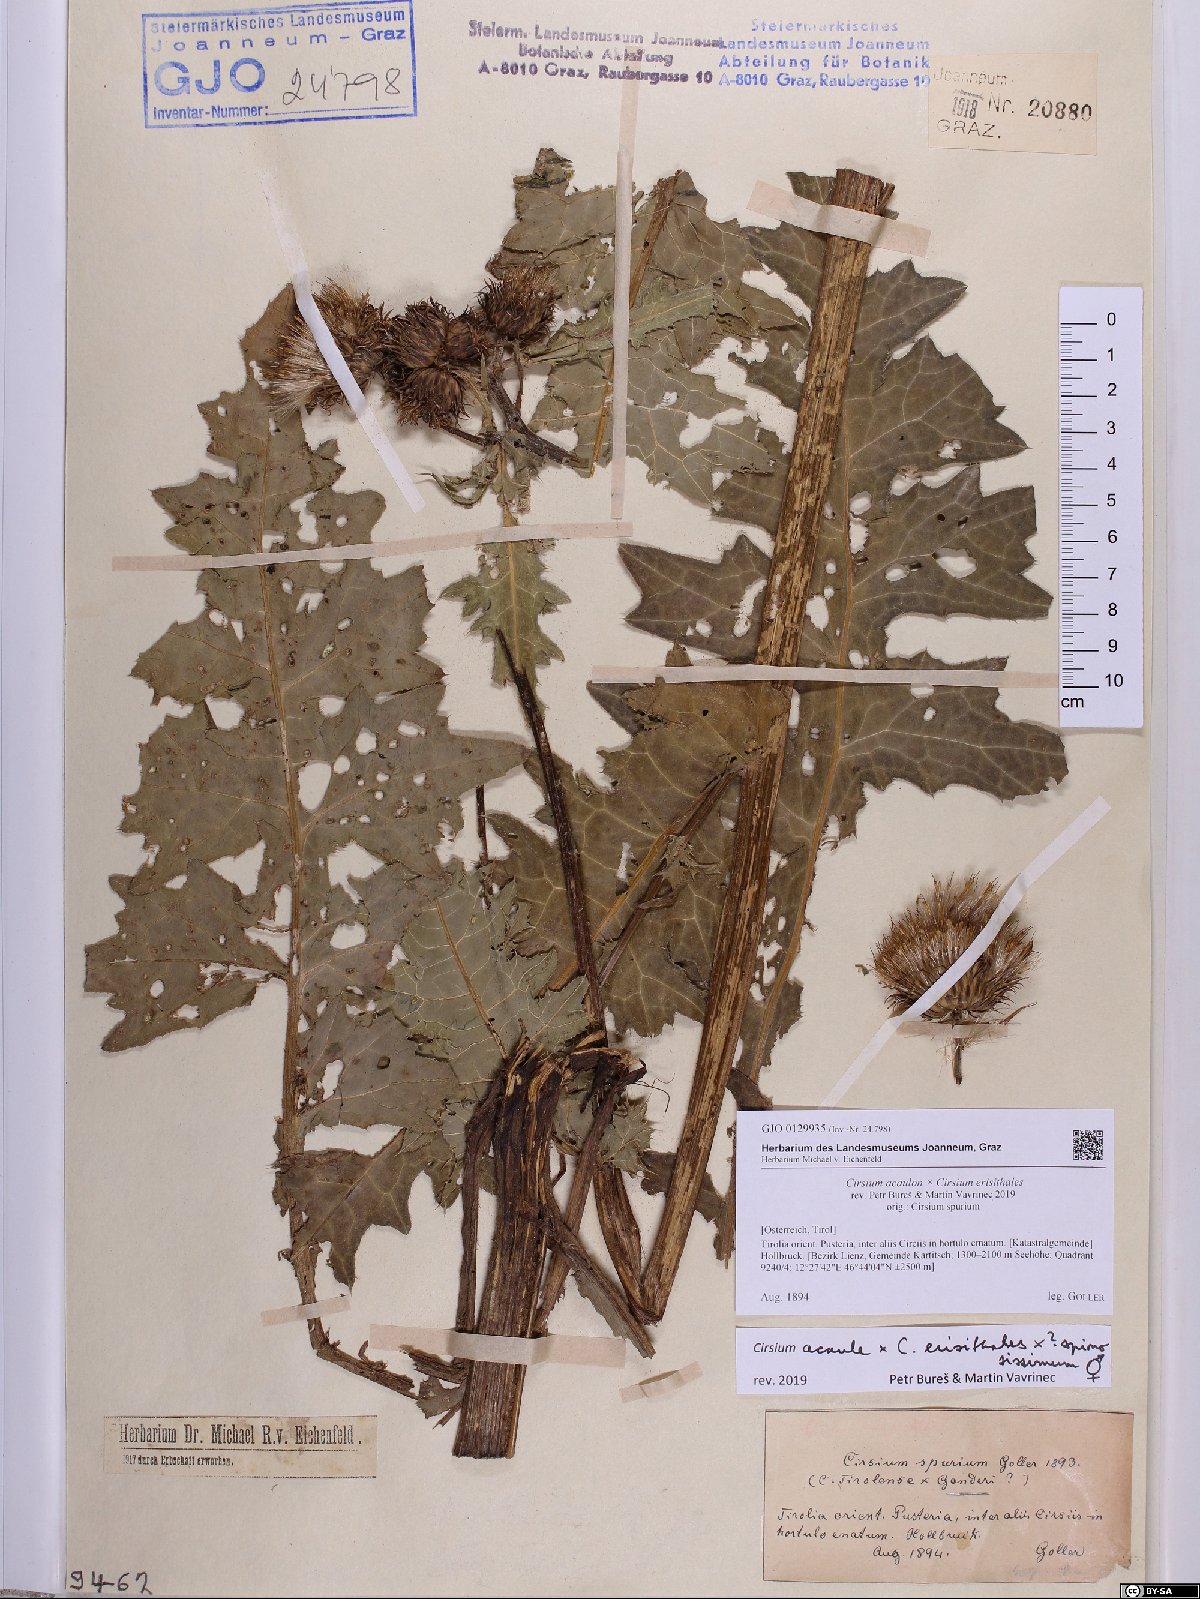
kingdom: Plantae
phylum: Tracheophyta
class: Magnoliopsida
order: Asterales
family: Asteraceae
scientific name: Asteraceae
